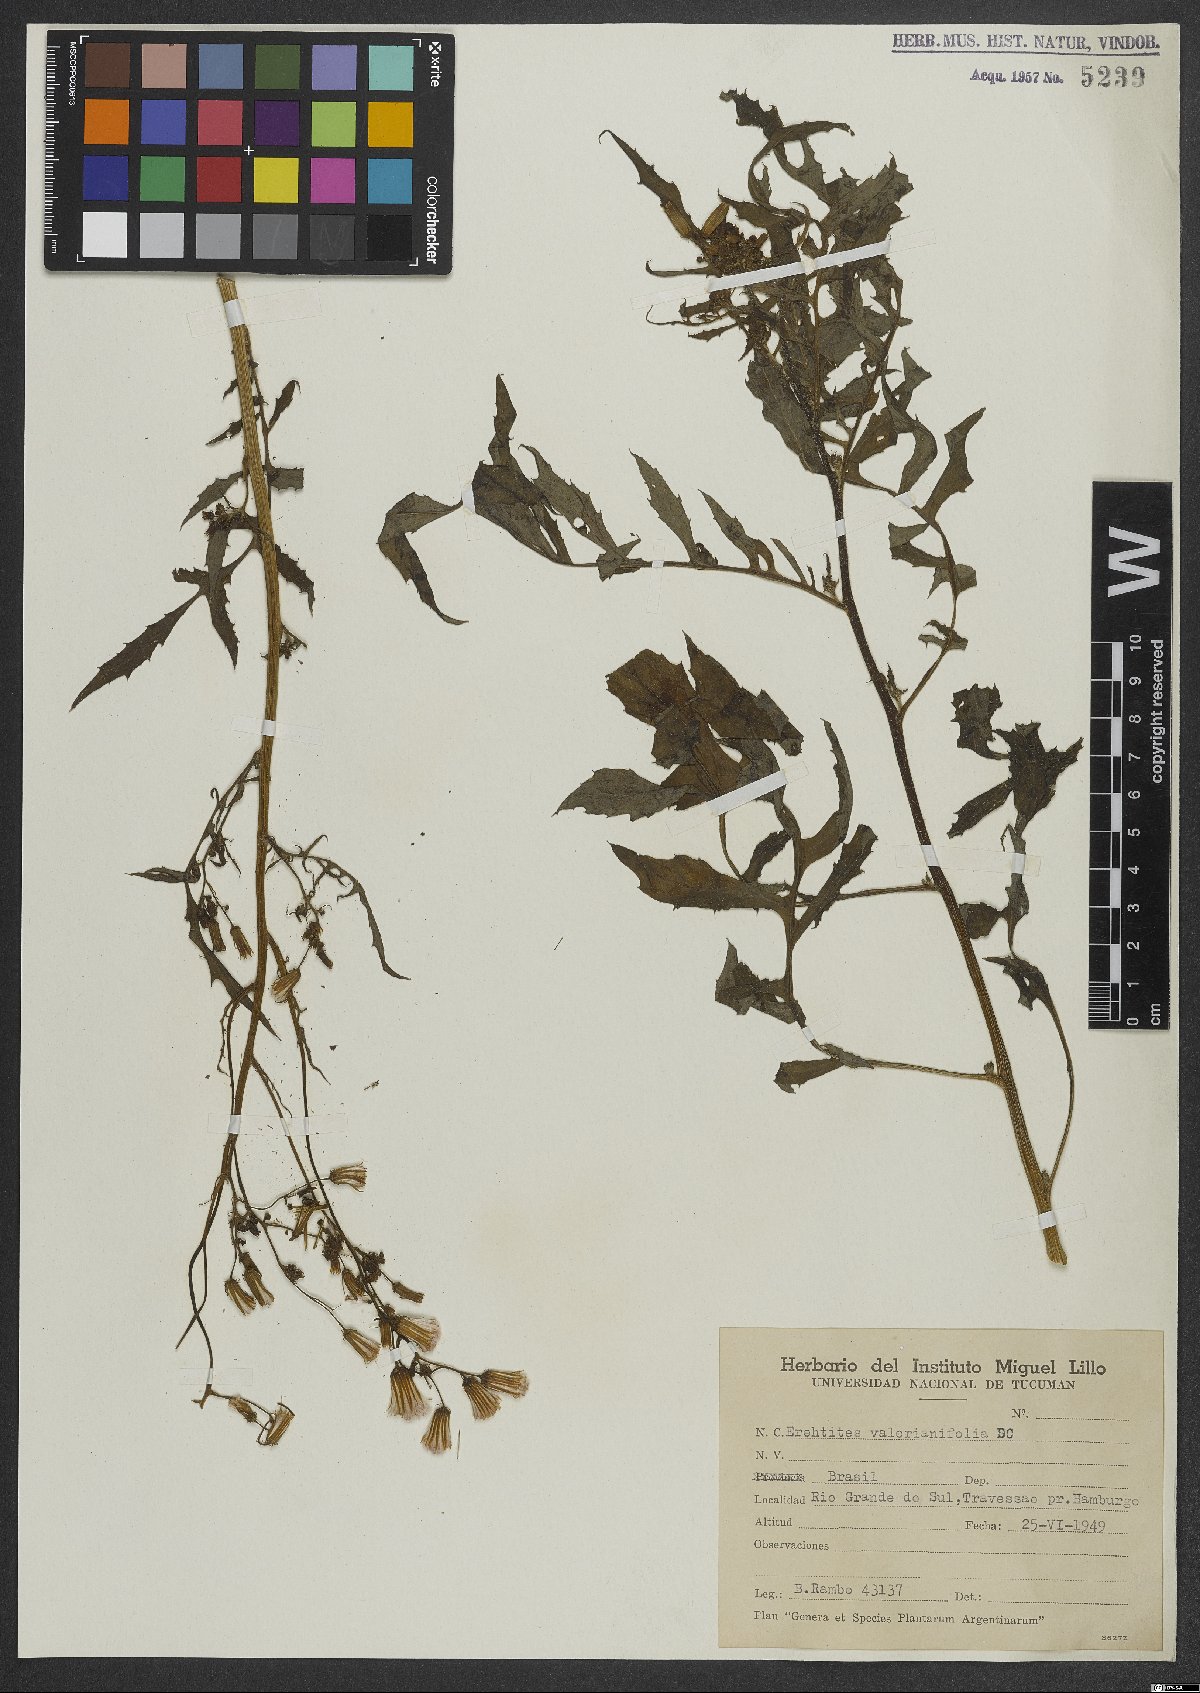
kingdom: Plantae
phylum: Tracheophyta
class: Magnoliopsida
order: Asterales
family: Asteraceae
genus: Erechtites
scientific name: Erechtites valerianifolius
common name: Tropical burnweed
